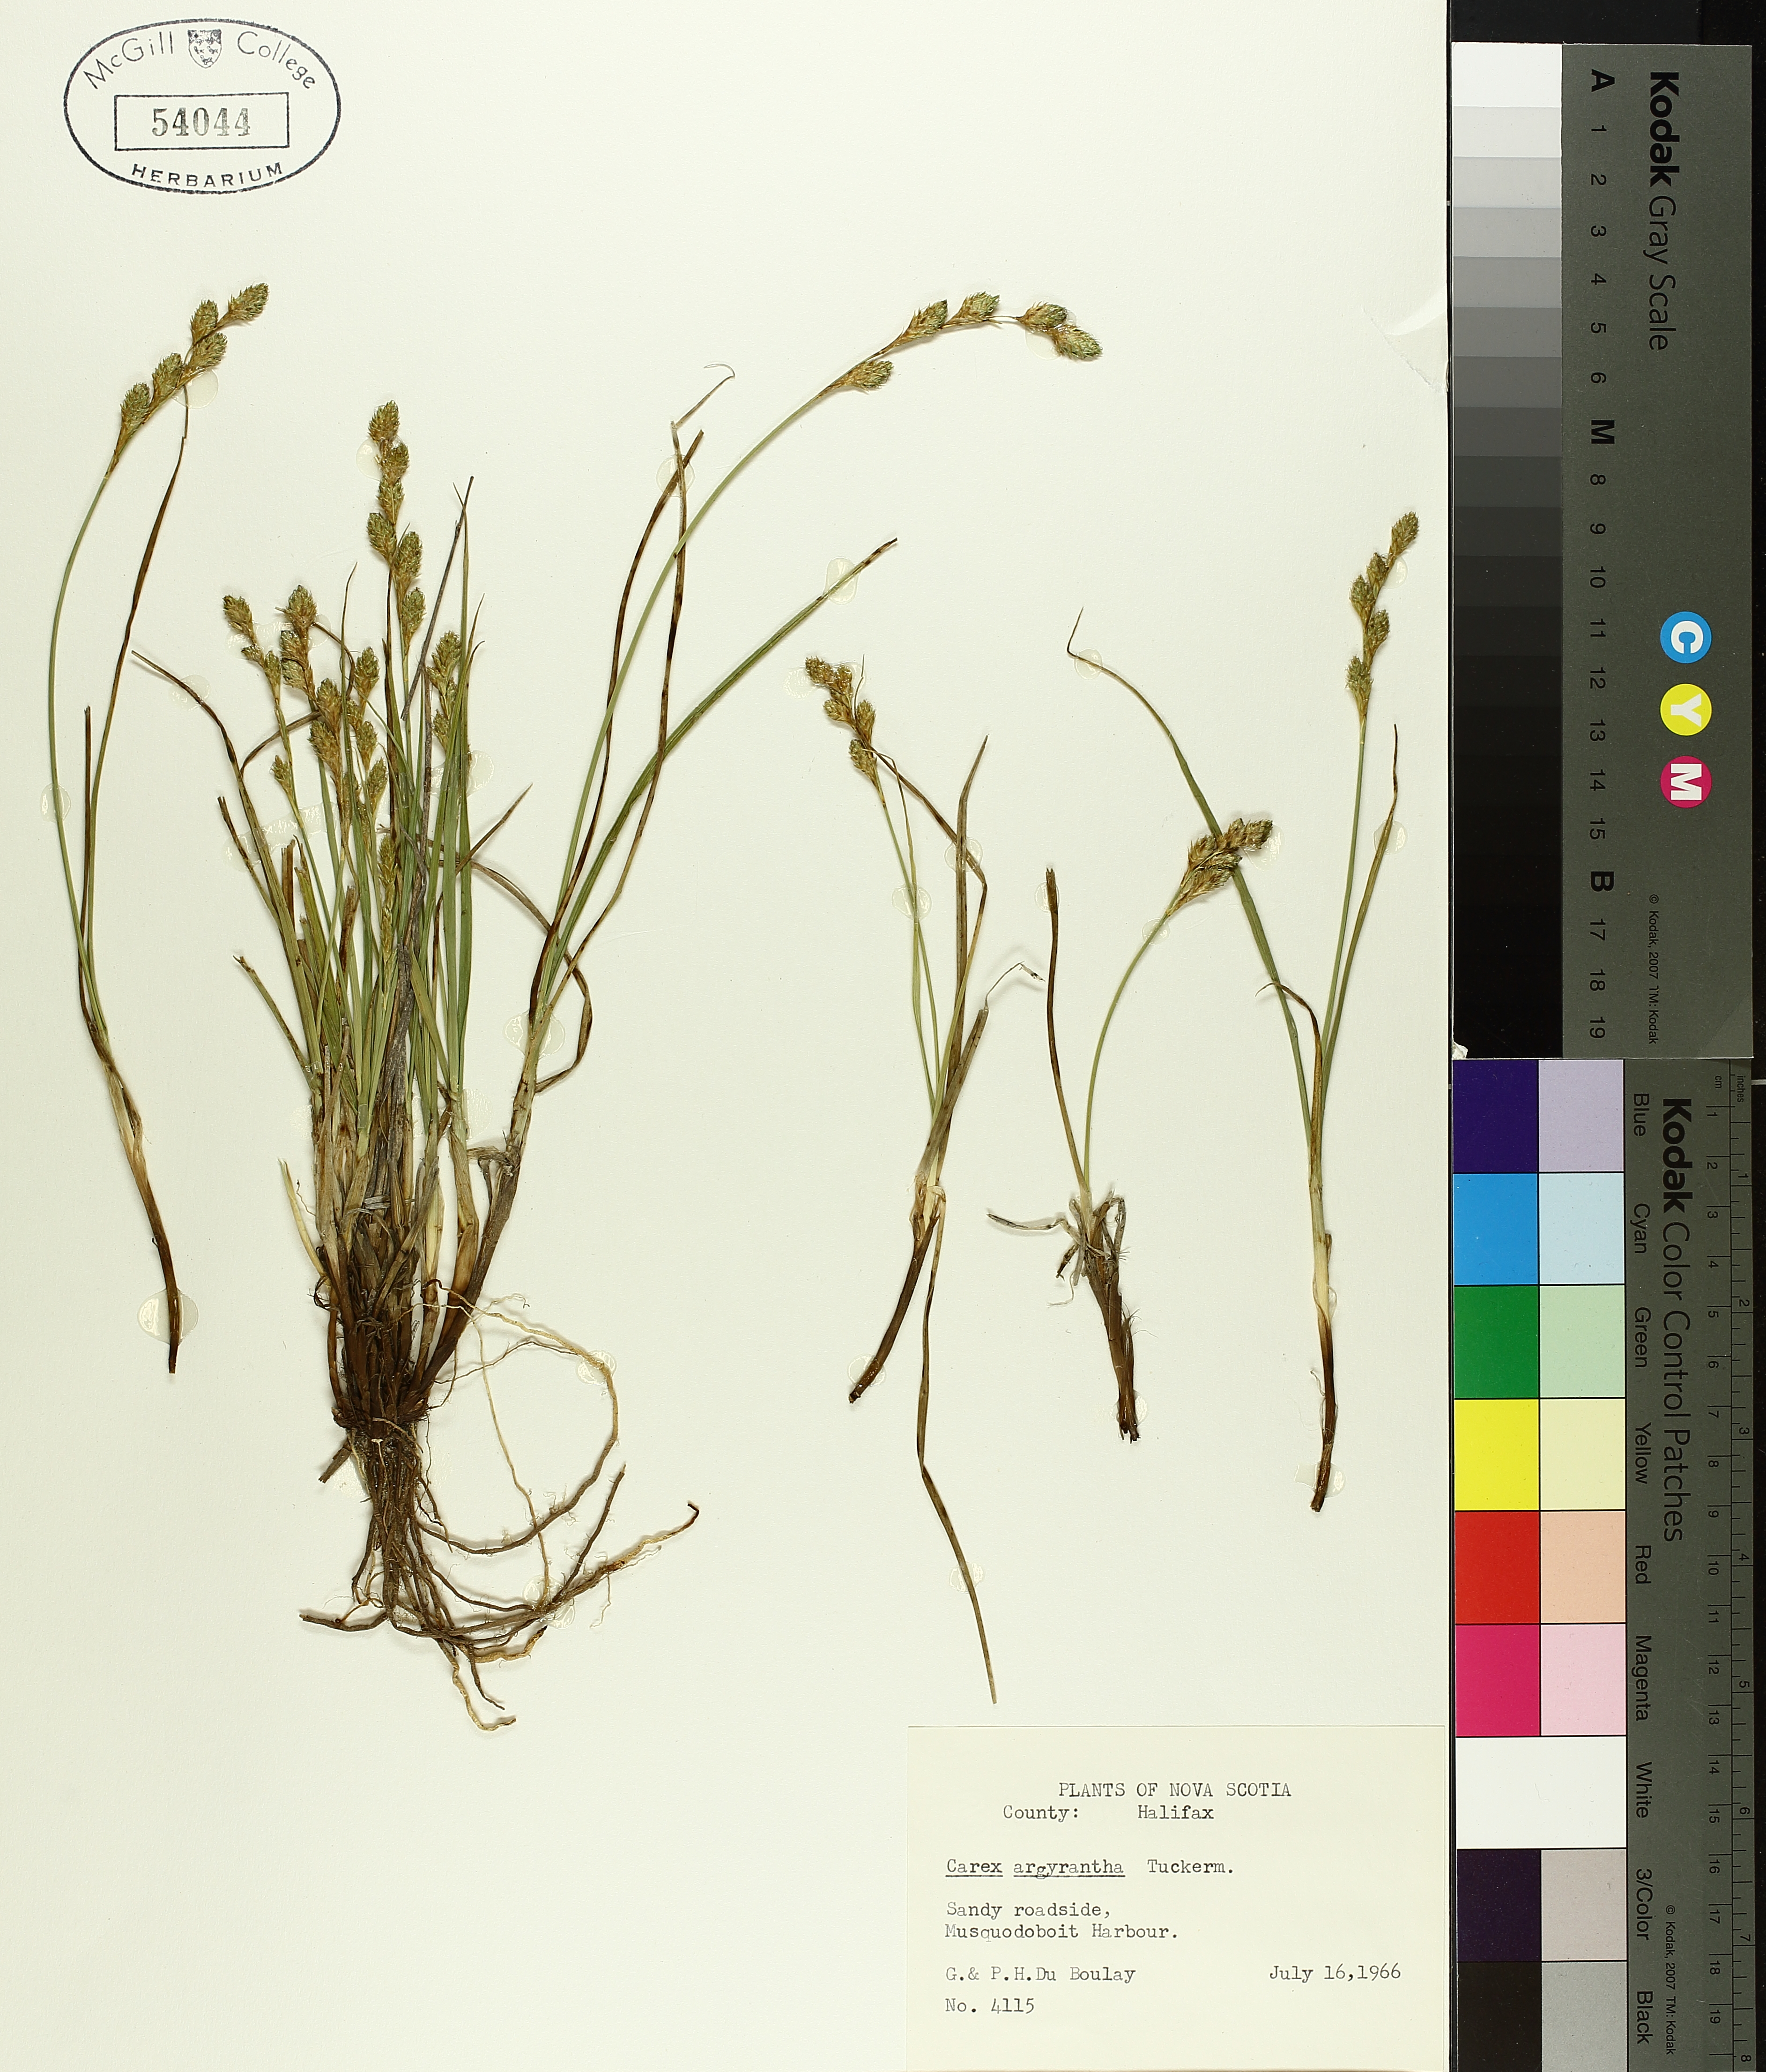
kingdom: Plantae
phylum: Tracheophyta
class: Liliopsida
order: Poales
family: Cyperaceae
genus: Carex
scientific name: Carex argyrantha
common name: Silvery-flowered sedge
